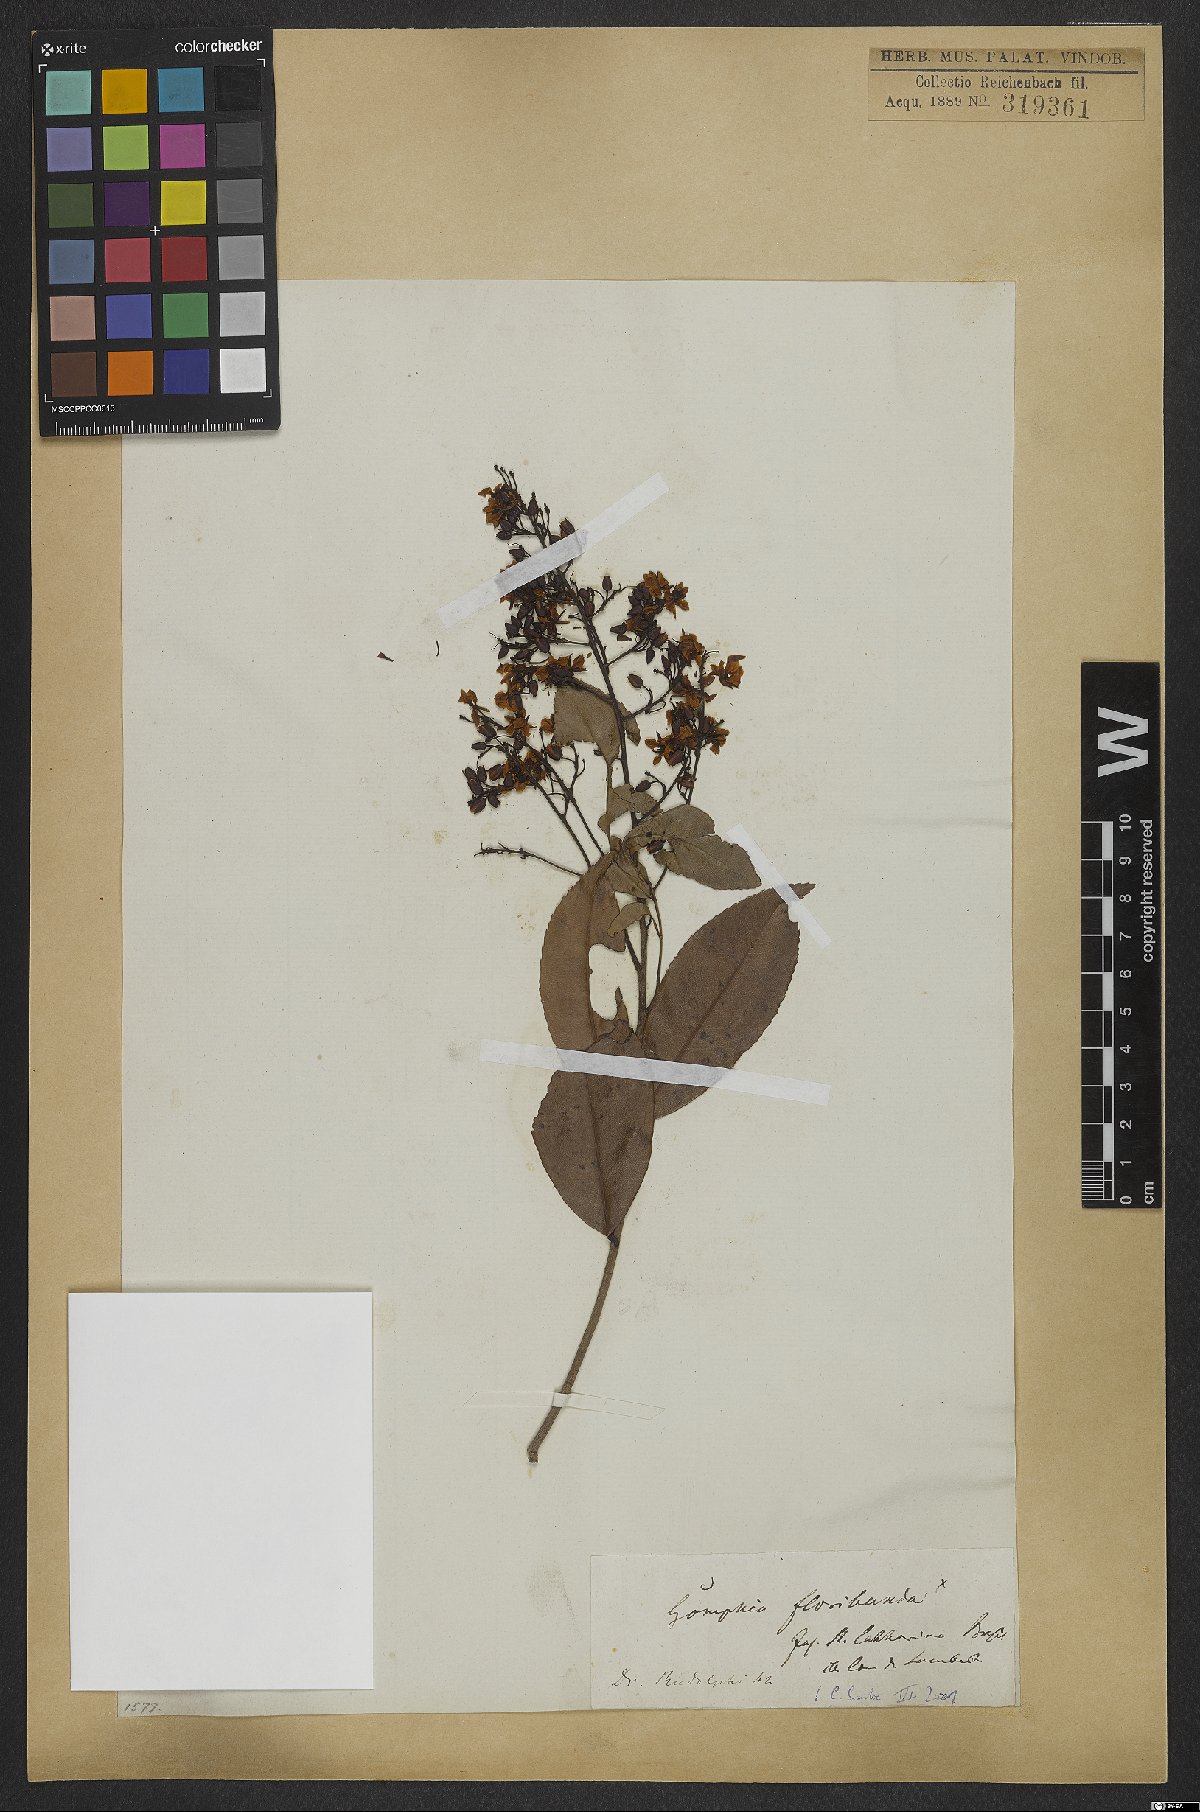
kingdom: Plantae
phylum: Tracheophyta
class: Magnoliopsida
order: Malpighiales
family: Ochnaceae
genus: Campylospermum
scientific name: Campylospermum bukobense
